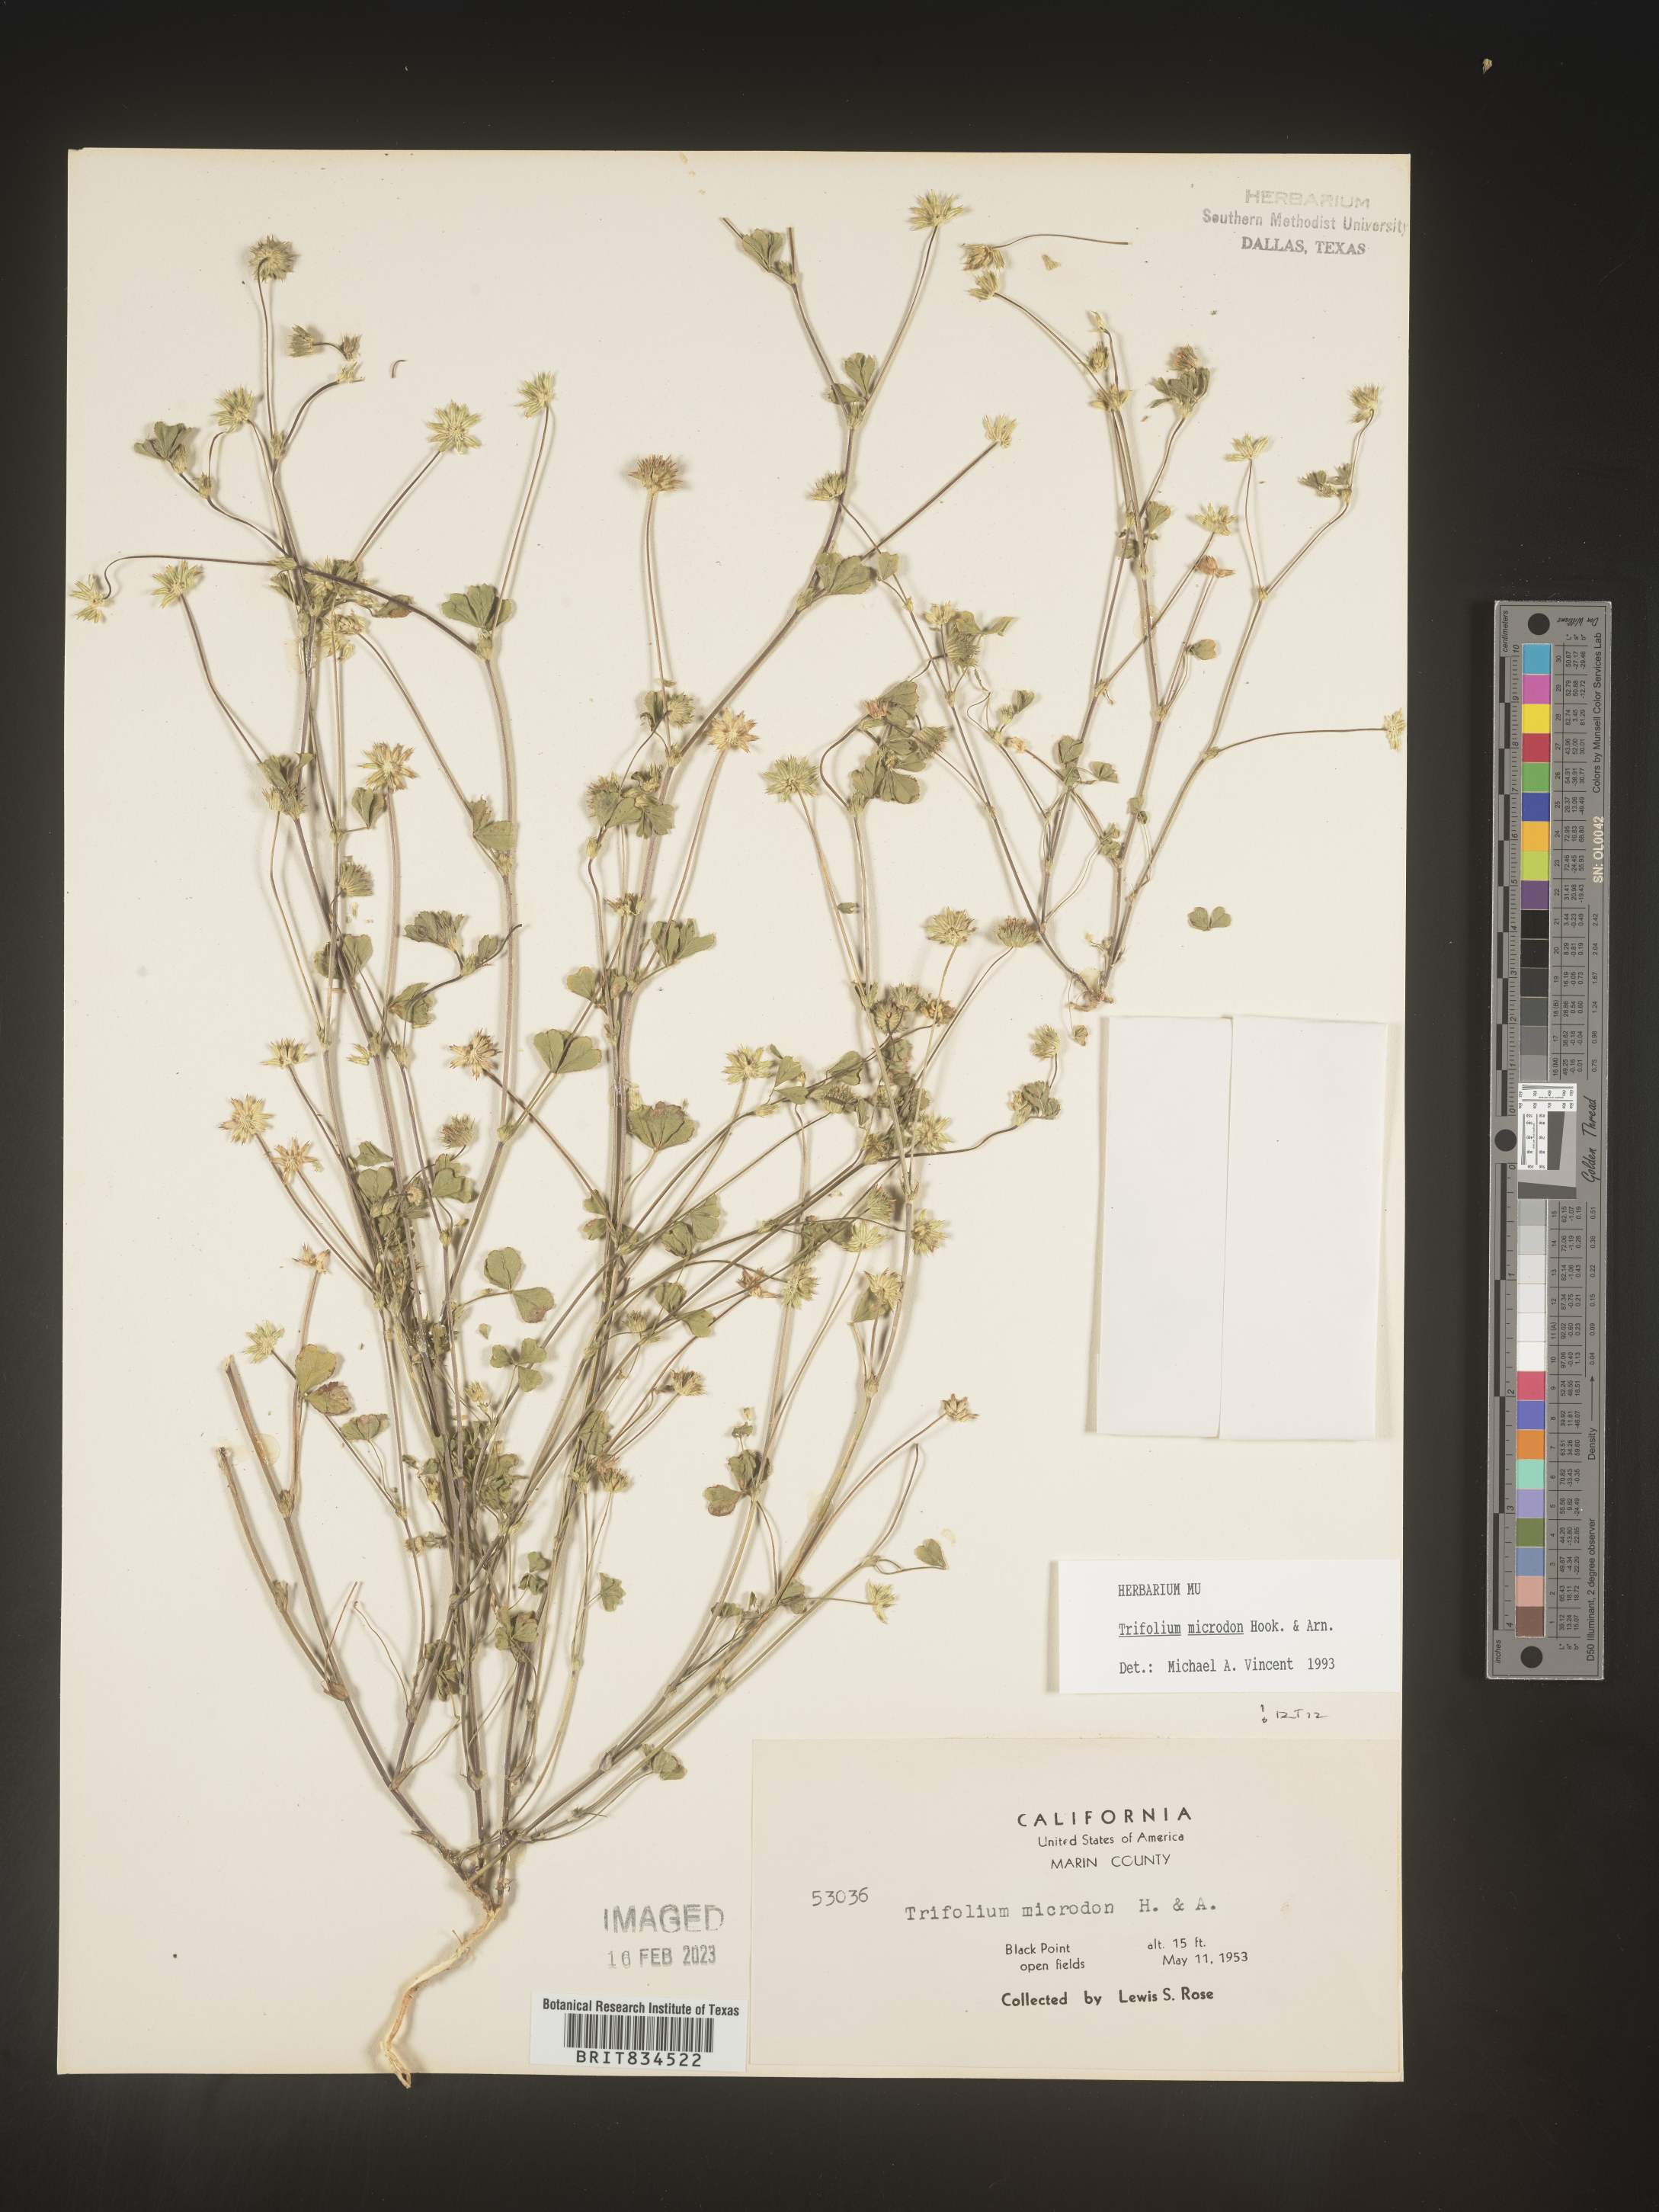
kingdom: Plantae
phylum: Tracheophyta
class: Magnoliopsida
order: Fabales
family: Fabaceae
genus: Trifolium
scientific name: Trifolium
